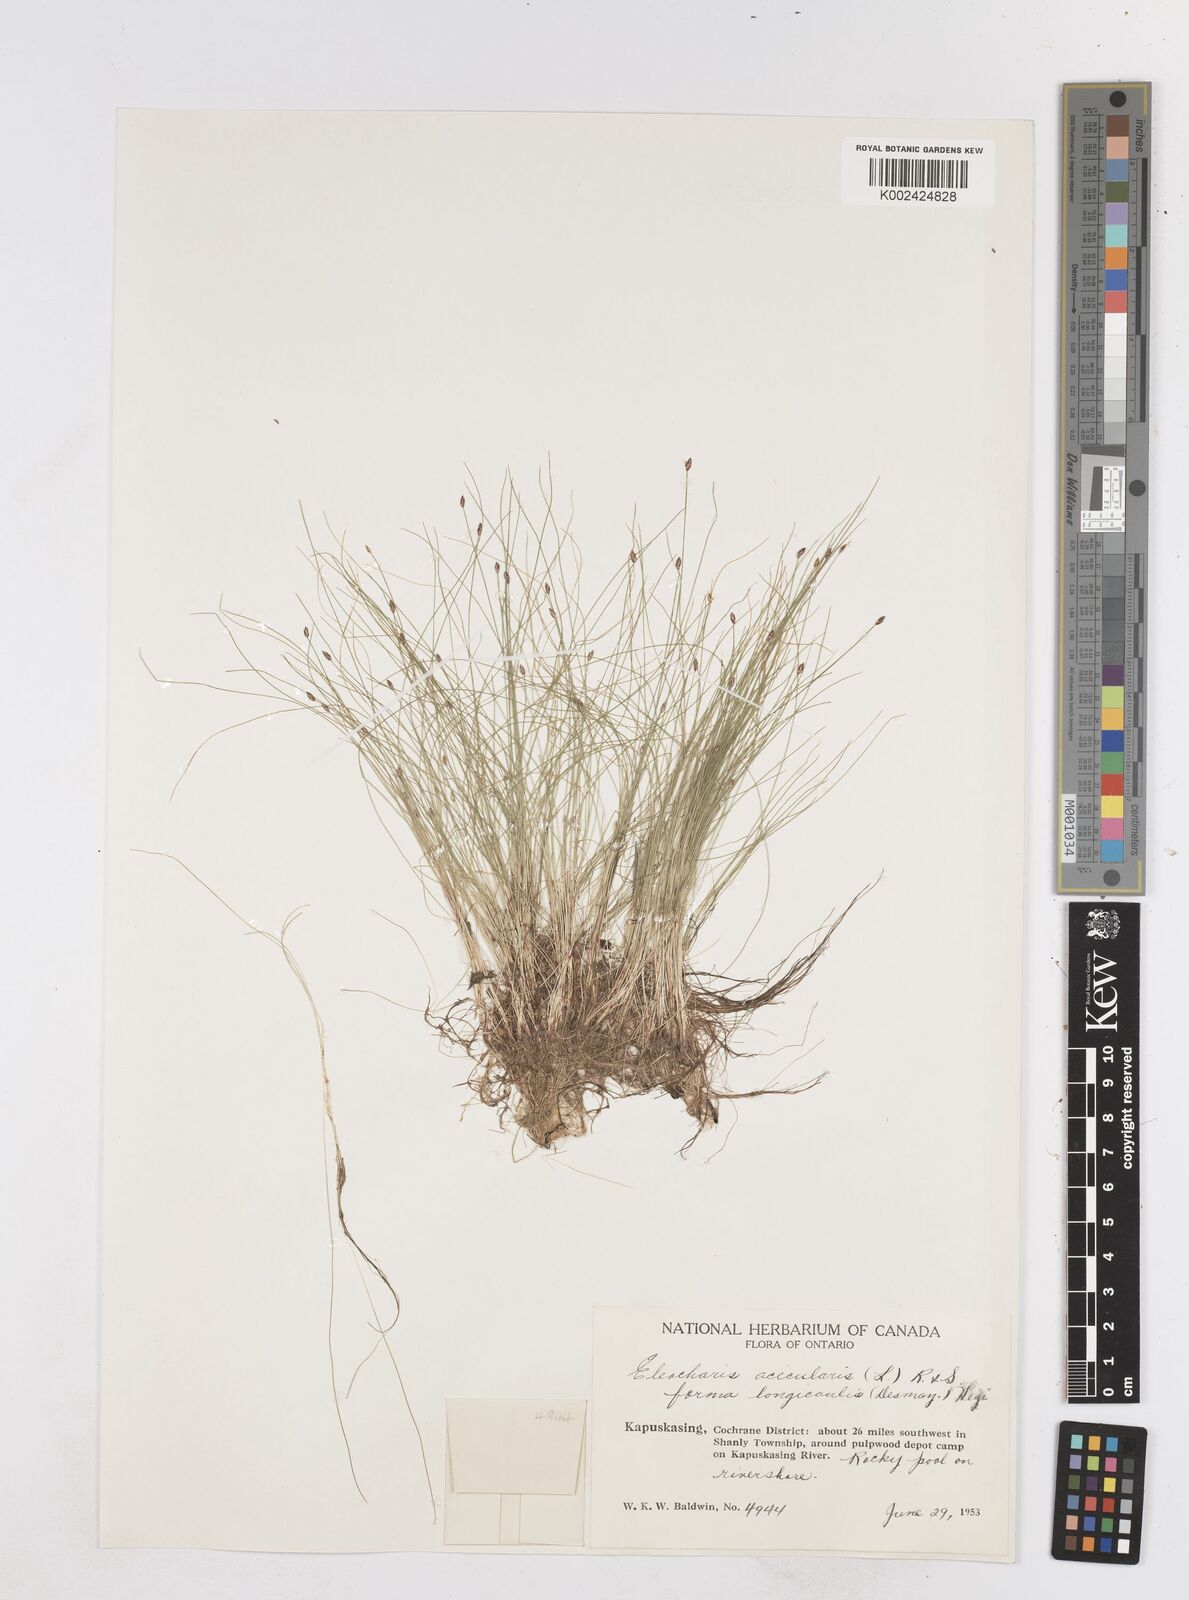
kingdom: Plantae
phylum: Tracheophyta
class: Liliopsida
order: Poales
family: Cyperaceae
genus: Eleocharis
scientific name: Eleocharis acicularis
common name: Needle spike-rush
